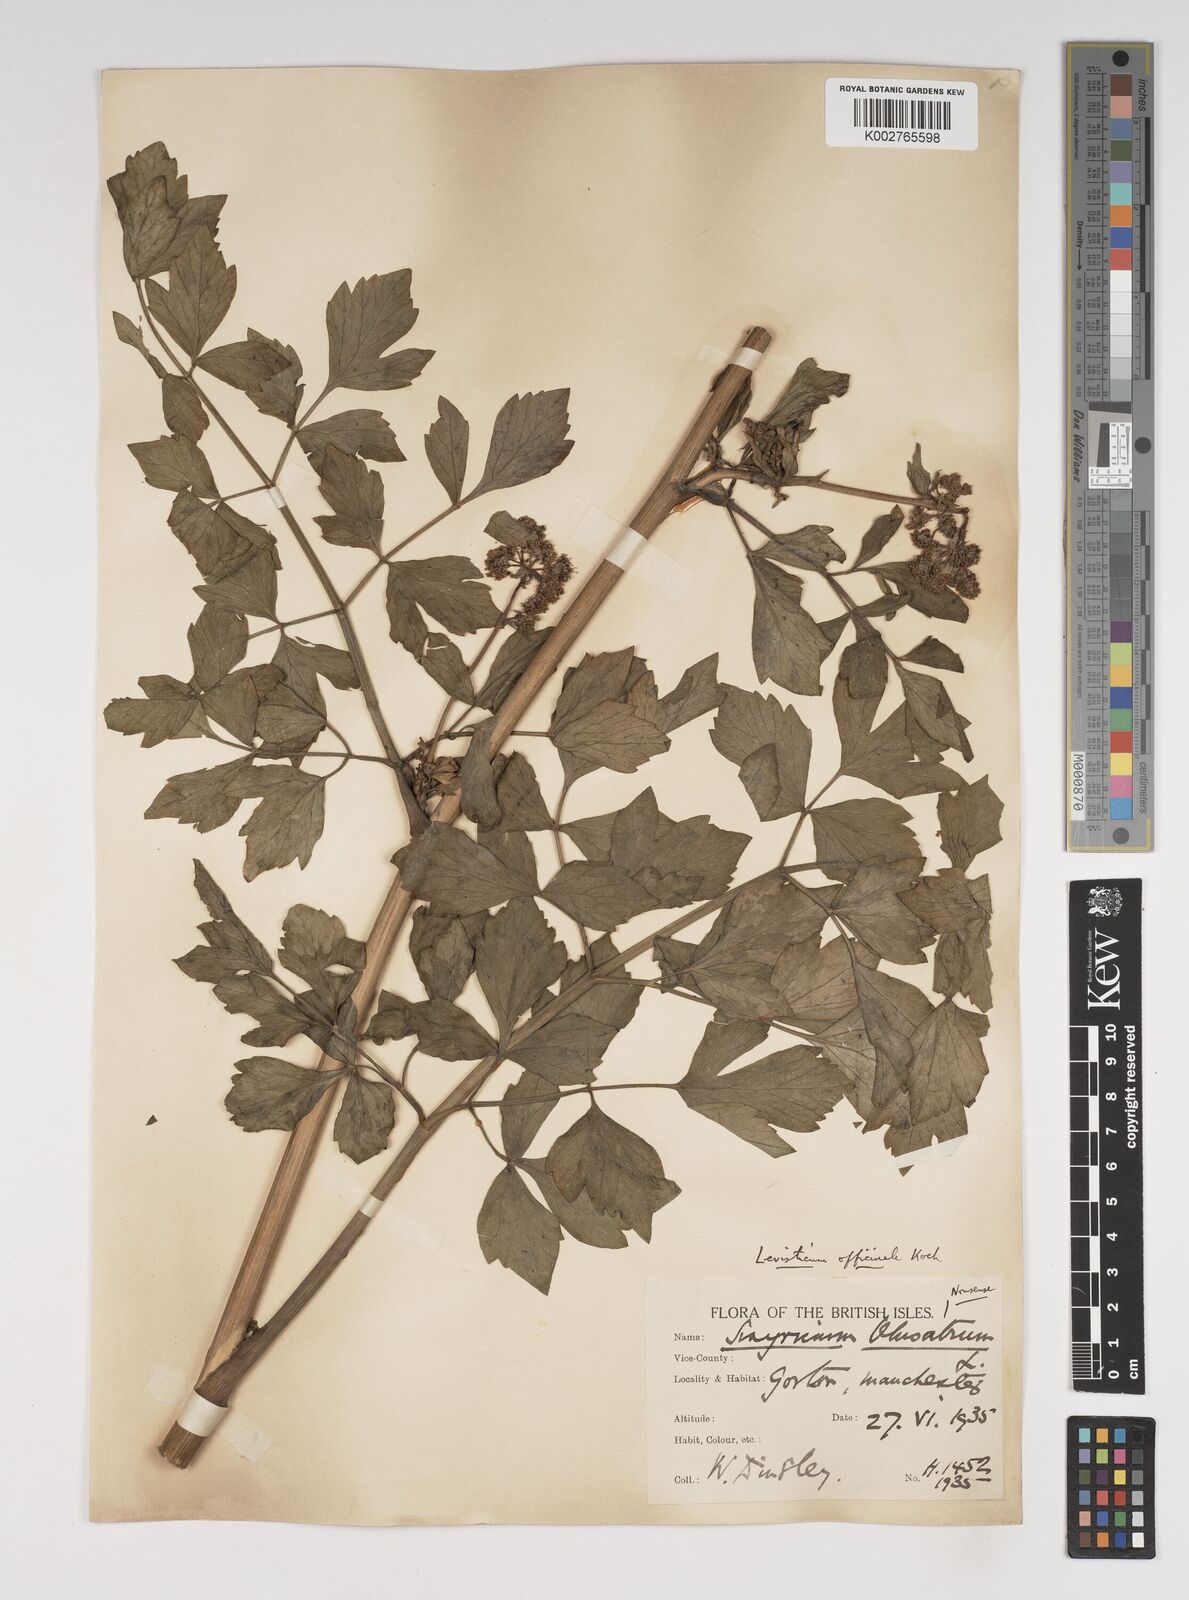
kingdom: Plantae
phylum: Tracheophyta
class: Magnoliopsida
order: Apiales
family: Apiaceae
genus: Levisticum
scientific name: Levisticum officinale
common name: Lovage
